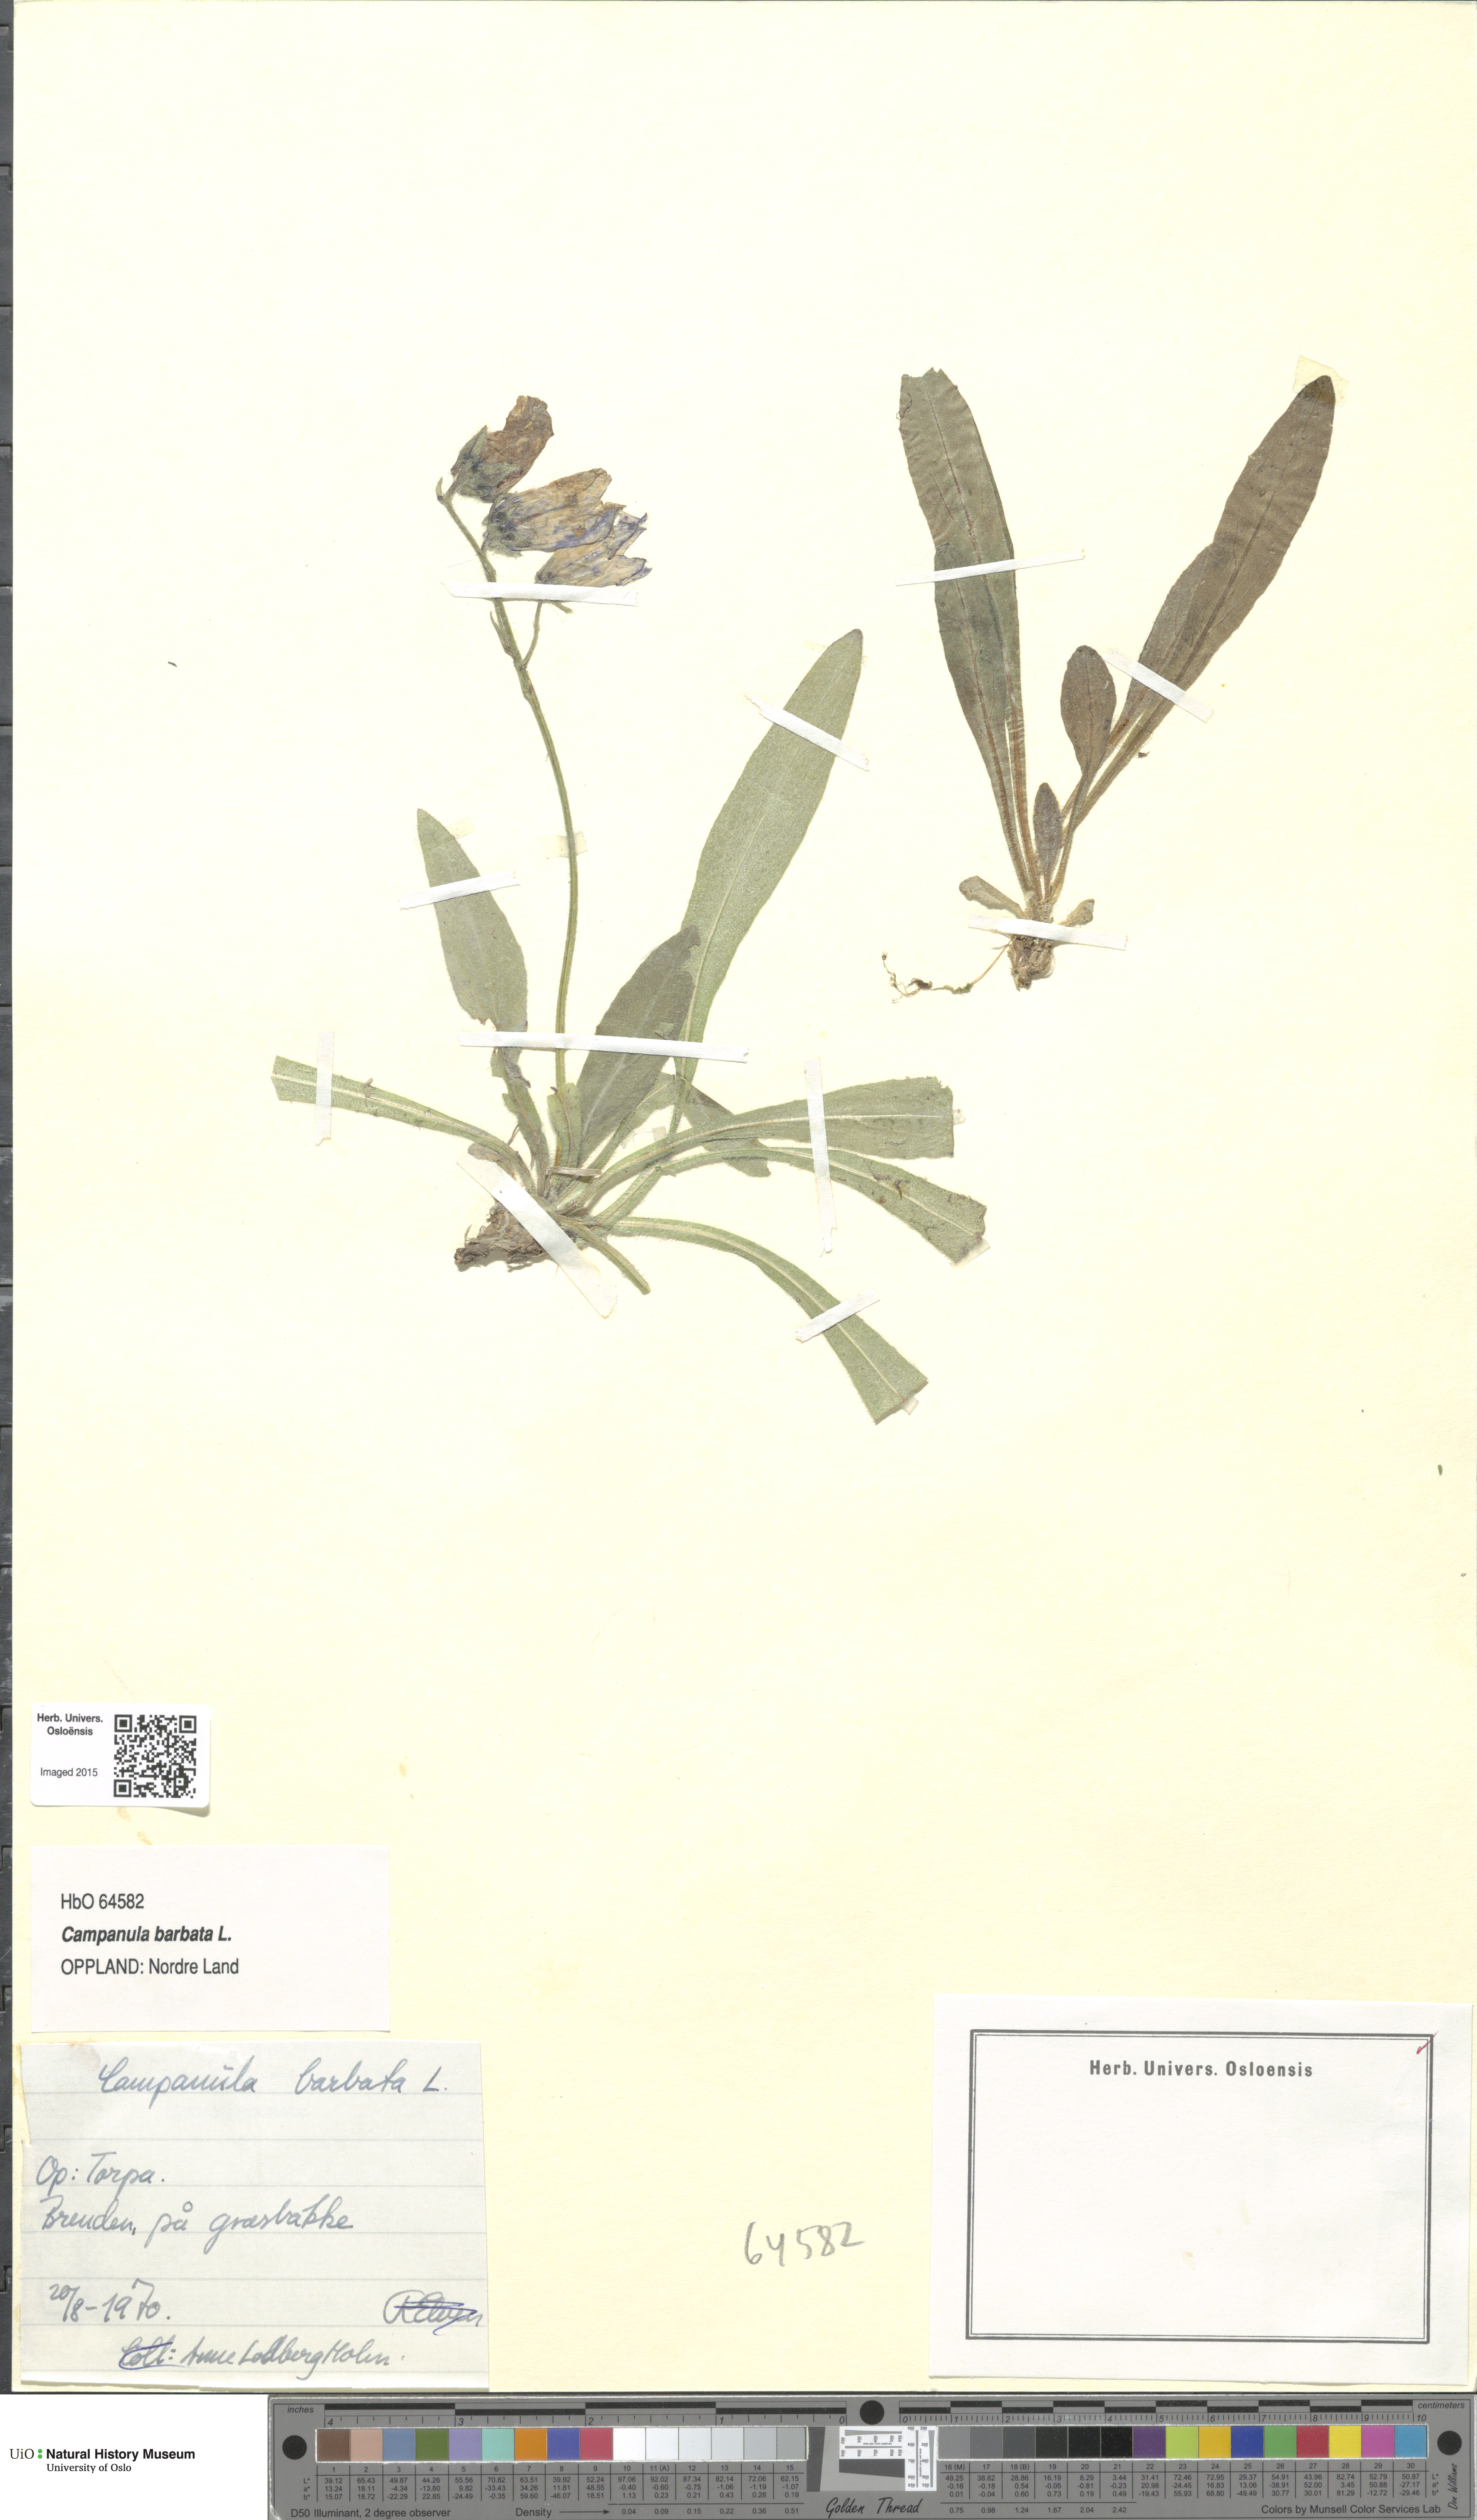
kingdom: Plantae
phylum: Tracheophyta
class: Magnoliopsida
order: Asterales
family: Campanulaceae
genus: Campanula
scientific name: Campanula barbata
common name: Bearded bellflower
